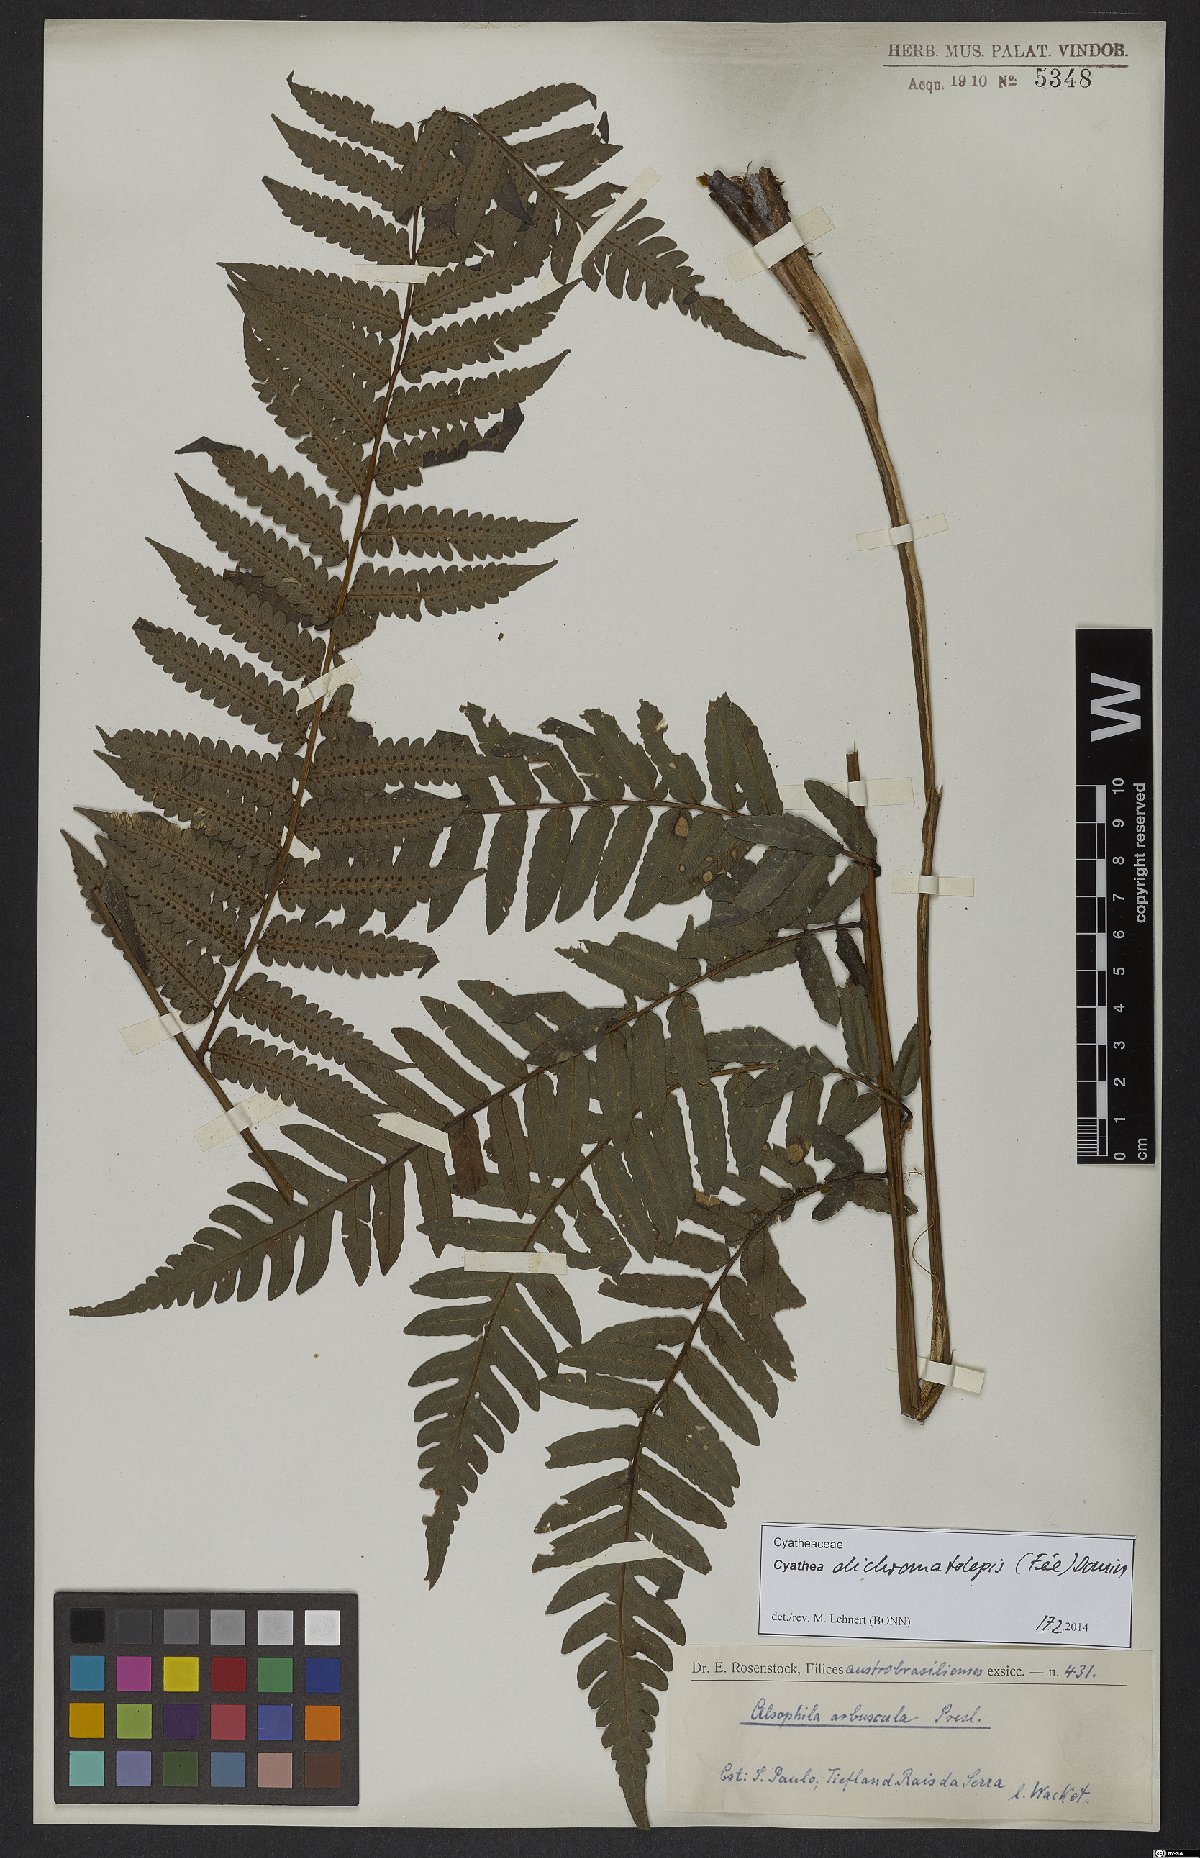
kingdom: Plantae
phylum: Tracheophyta
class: Polypodiopsida
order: Cyatheales
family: Cyatheaceae
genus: Cyathea
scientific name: Cyathea dichromatolepis
